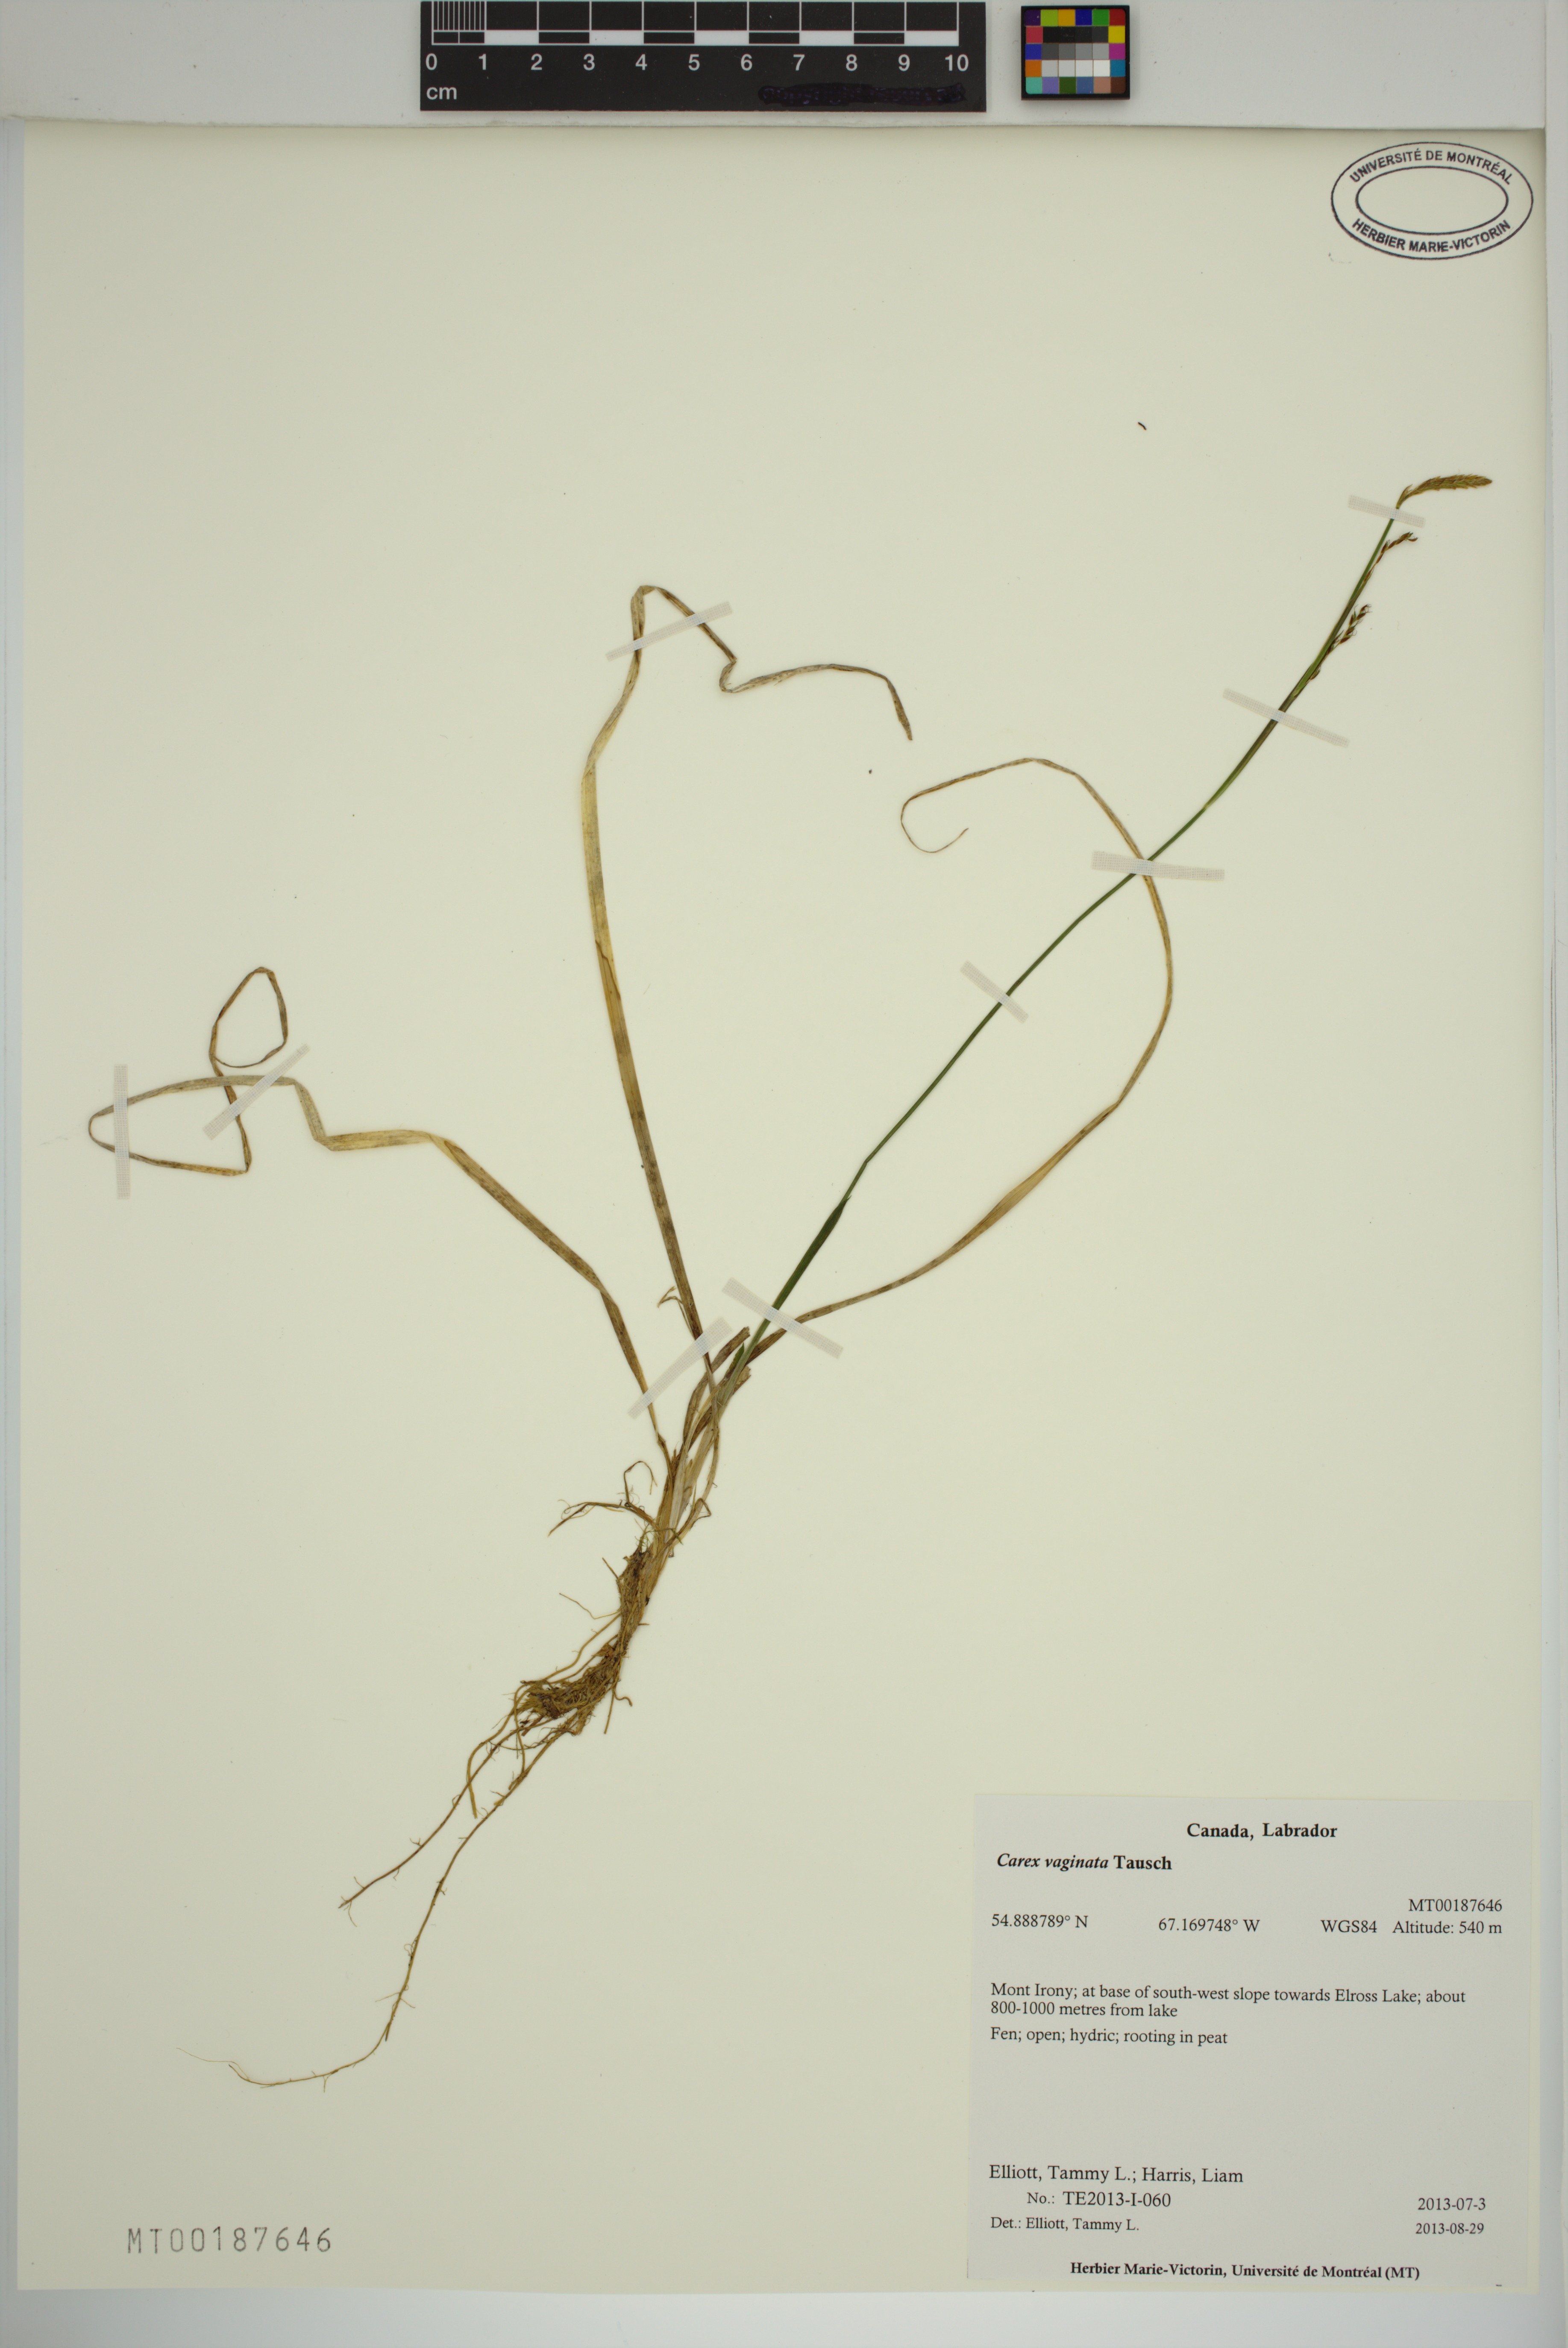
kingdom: Plantae
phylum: Tracheophyta
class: Liliopsida
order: Poales
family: Cyperaceae
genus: Carex
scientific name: Carex vaginata
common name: Sheathed sedge
